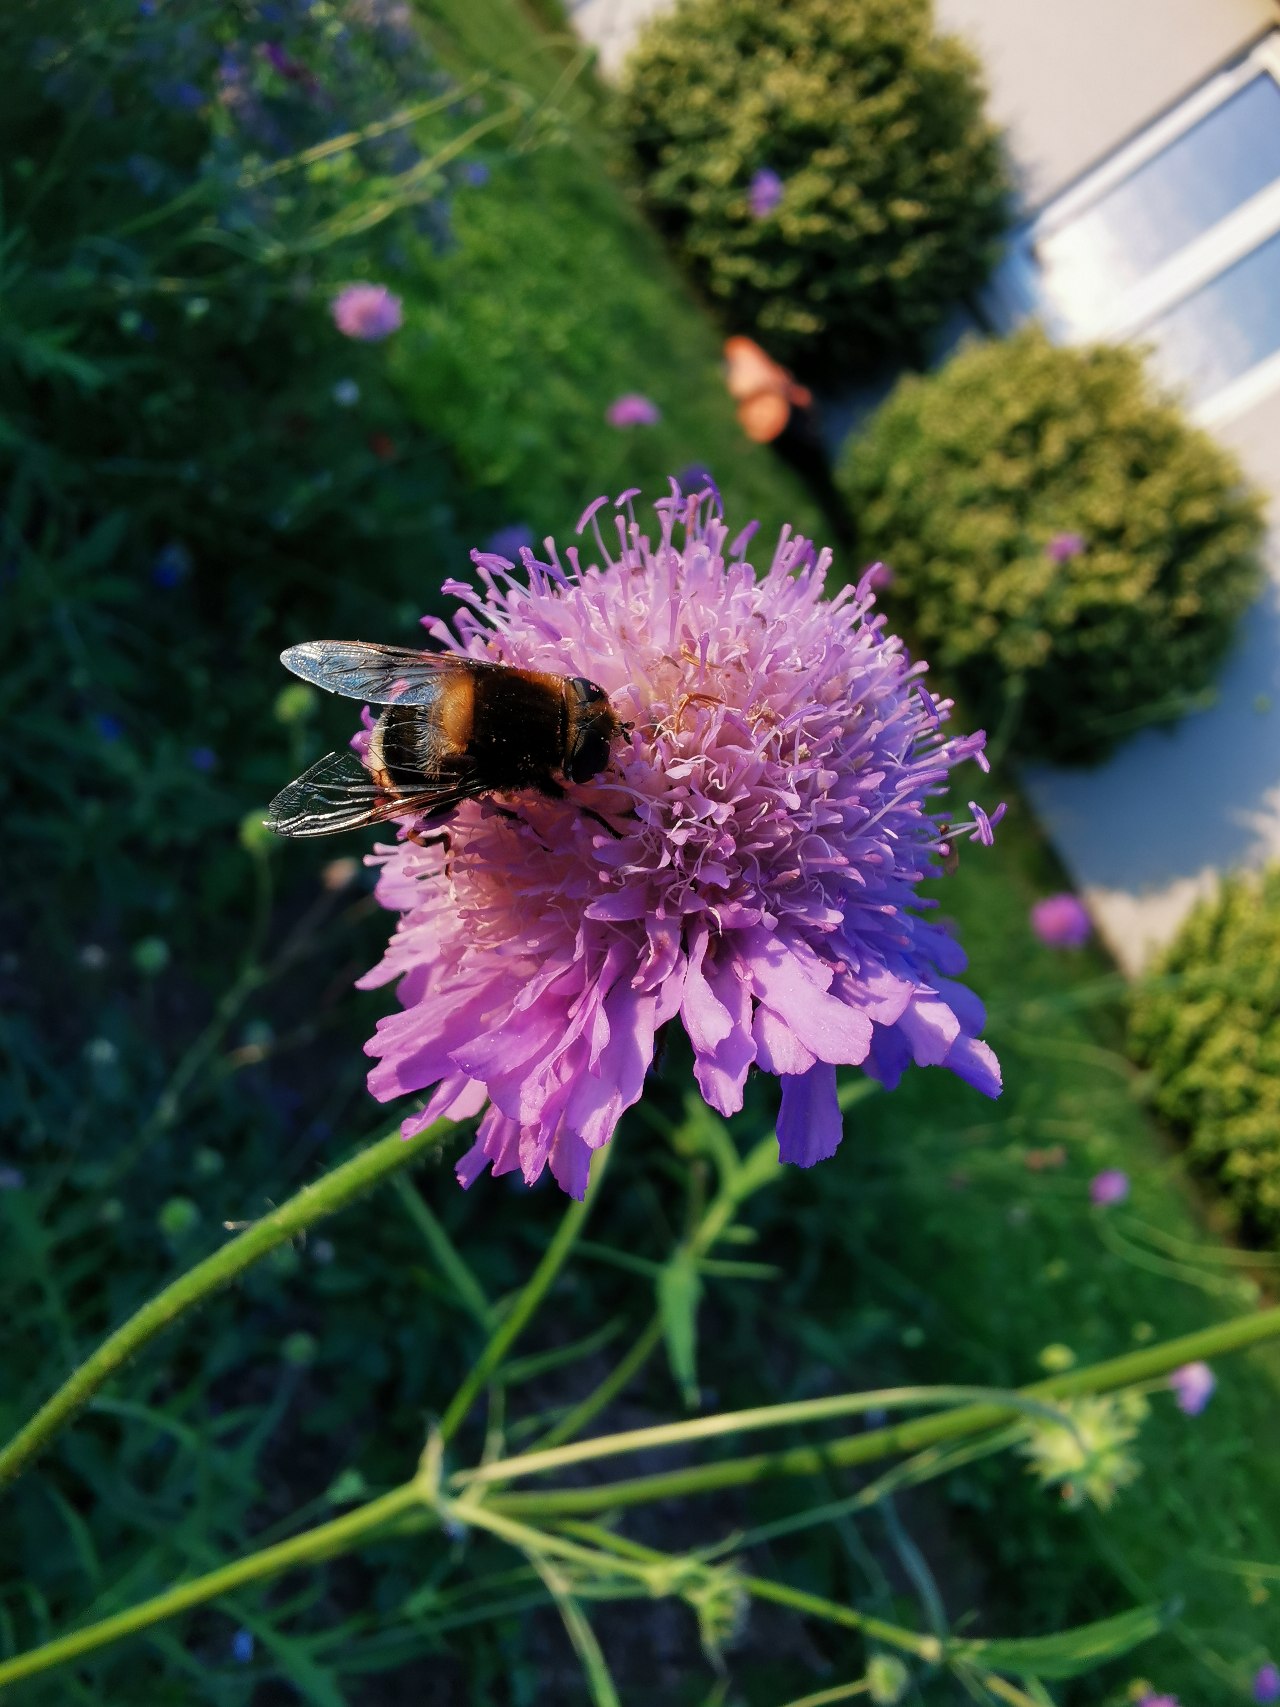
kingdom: Animalia
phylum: Arthropoda
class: Insecta
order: Diptera
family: Syrphidae
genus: Eristalis
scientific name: Eristalis intricaria
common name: Håret dyndflue
